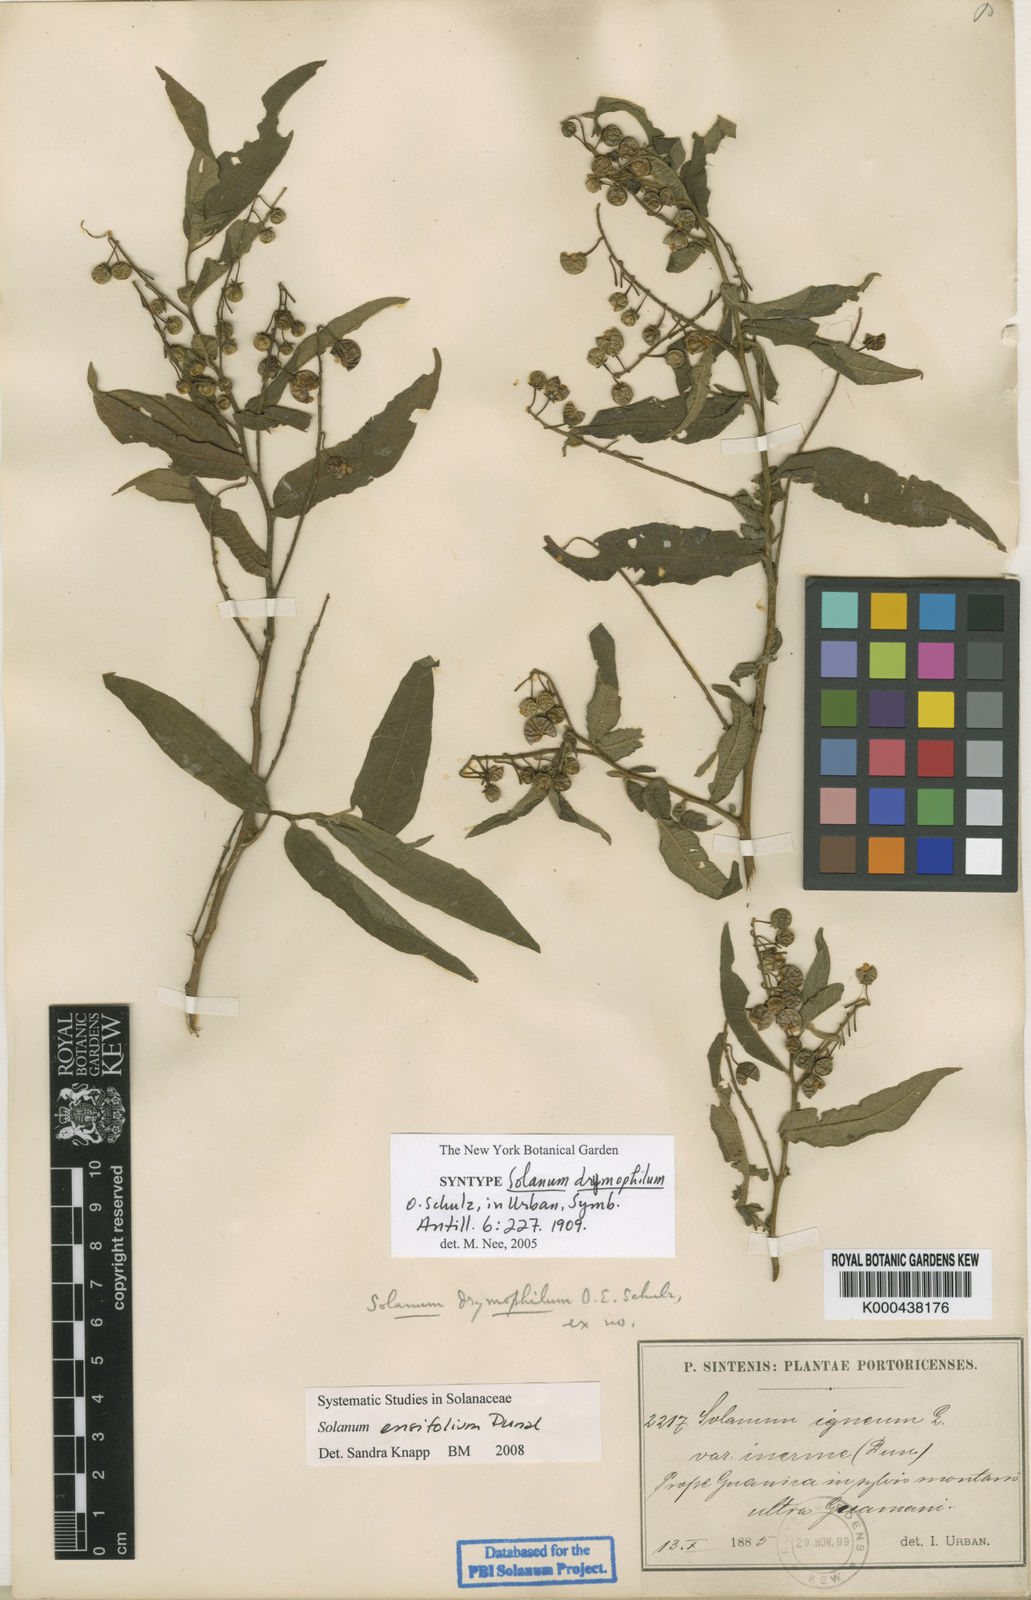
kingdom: Plantae
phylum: Tracheophyta
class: Magnoliopsida
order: Solanales
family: Solanaceae
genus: Solanum
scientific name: Solanum ensifolium
